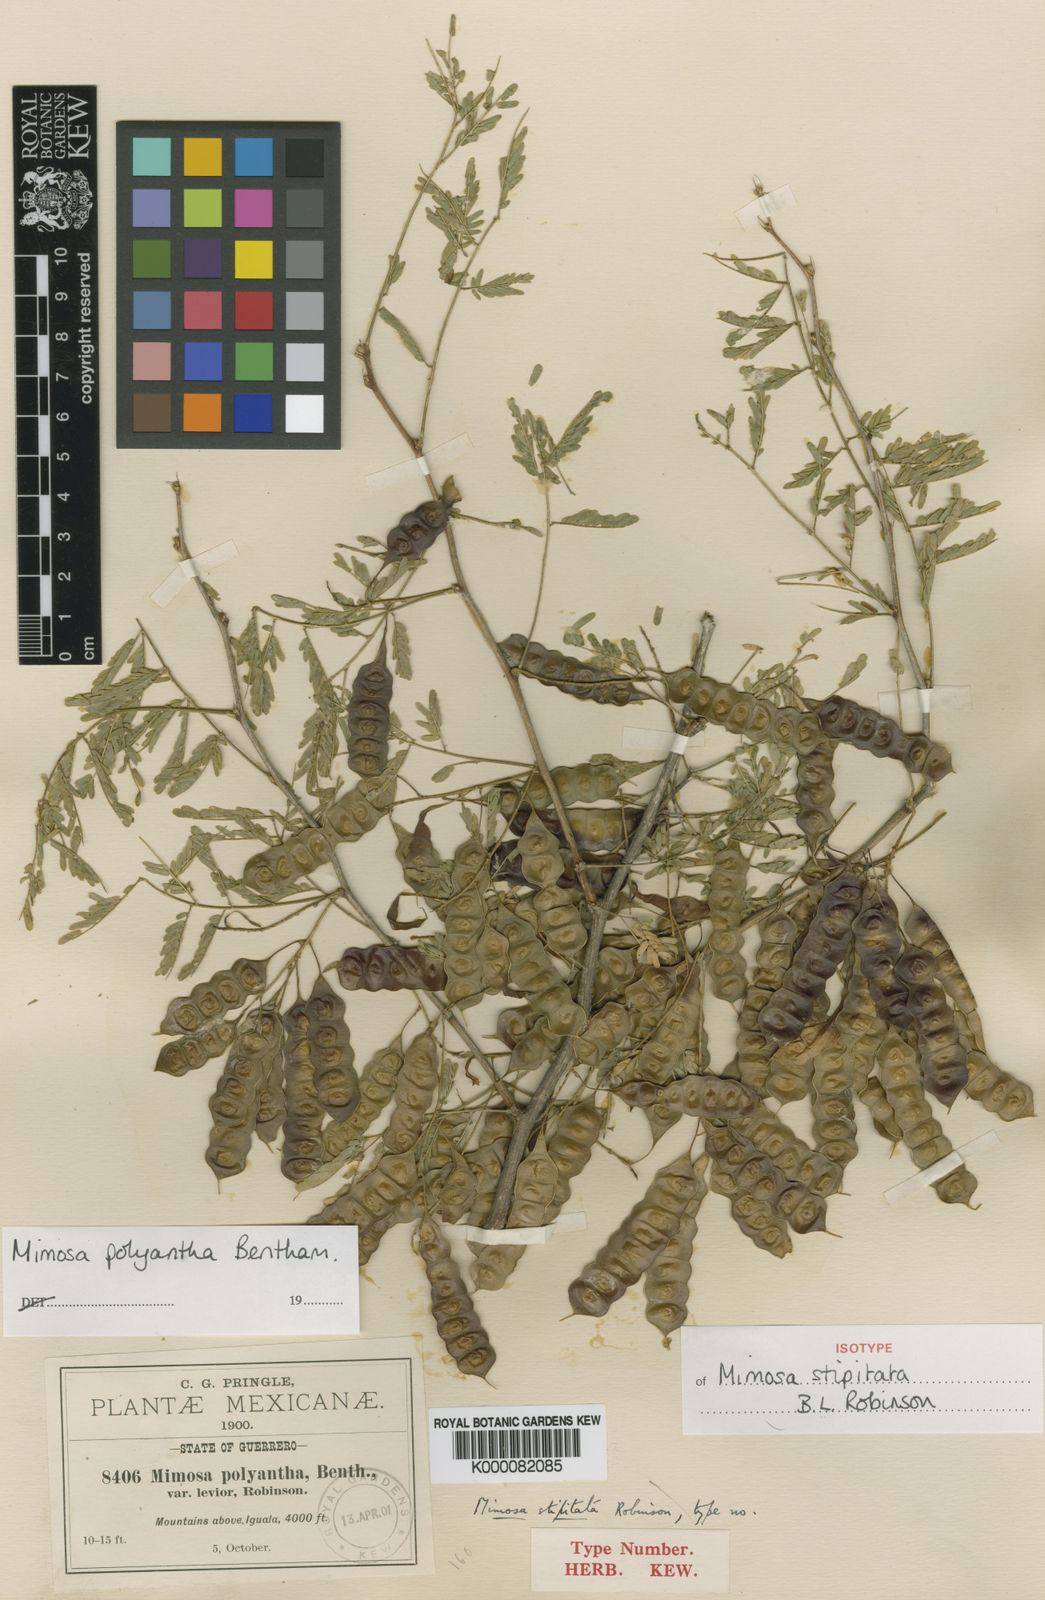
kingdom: Plantae
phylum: Tracheophyta
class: Magnoliopsida
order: Fabales
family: Fabaceae
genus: Mimosa
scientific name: Mimosa polyantha
